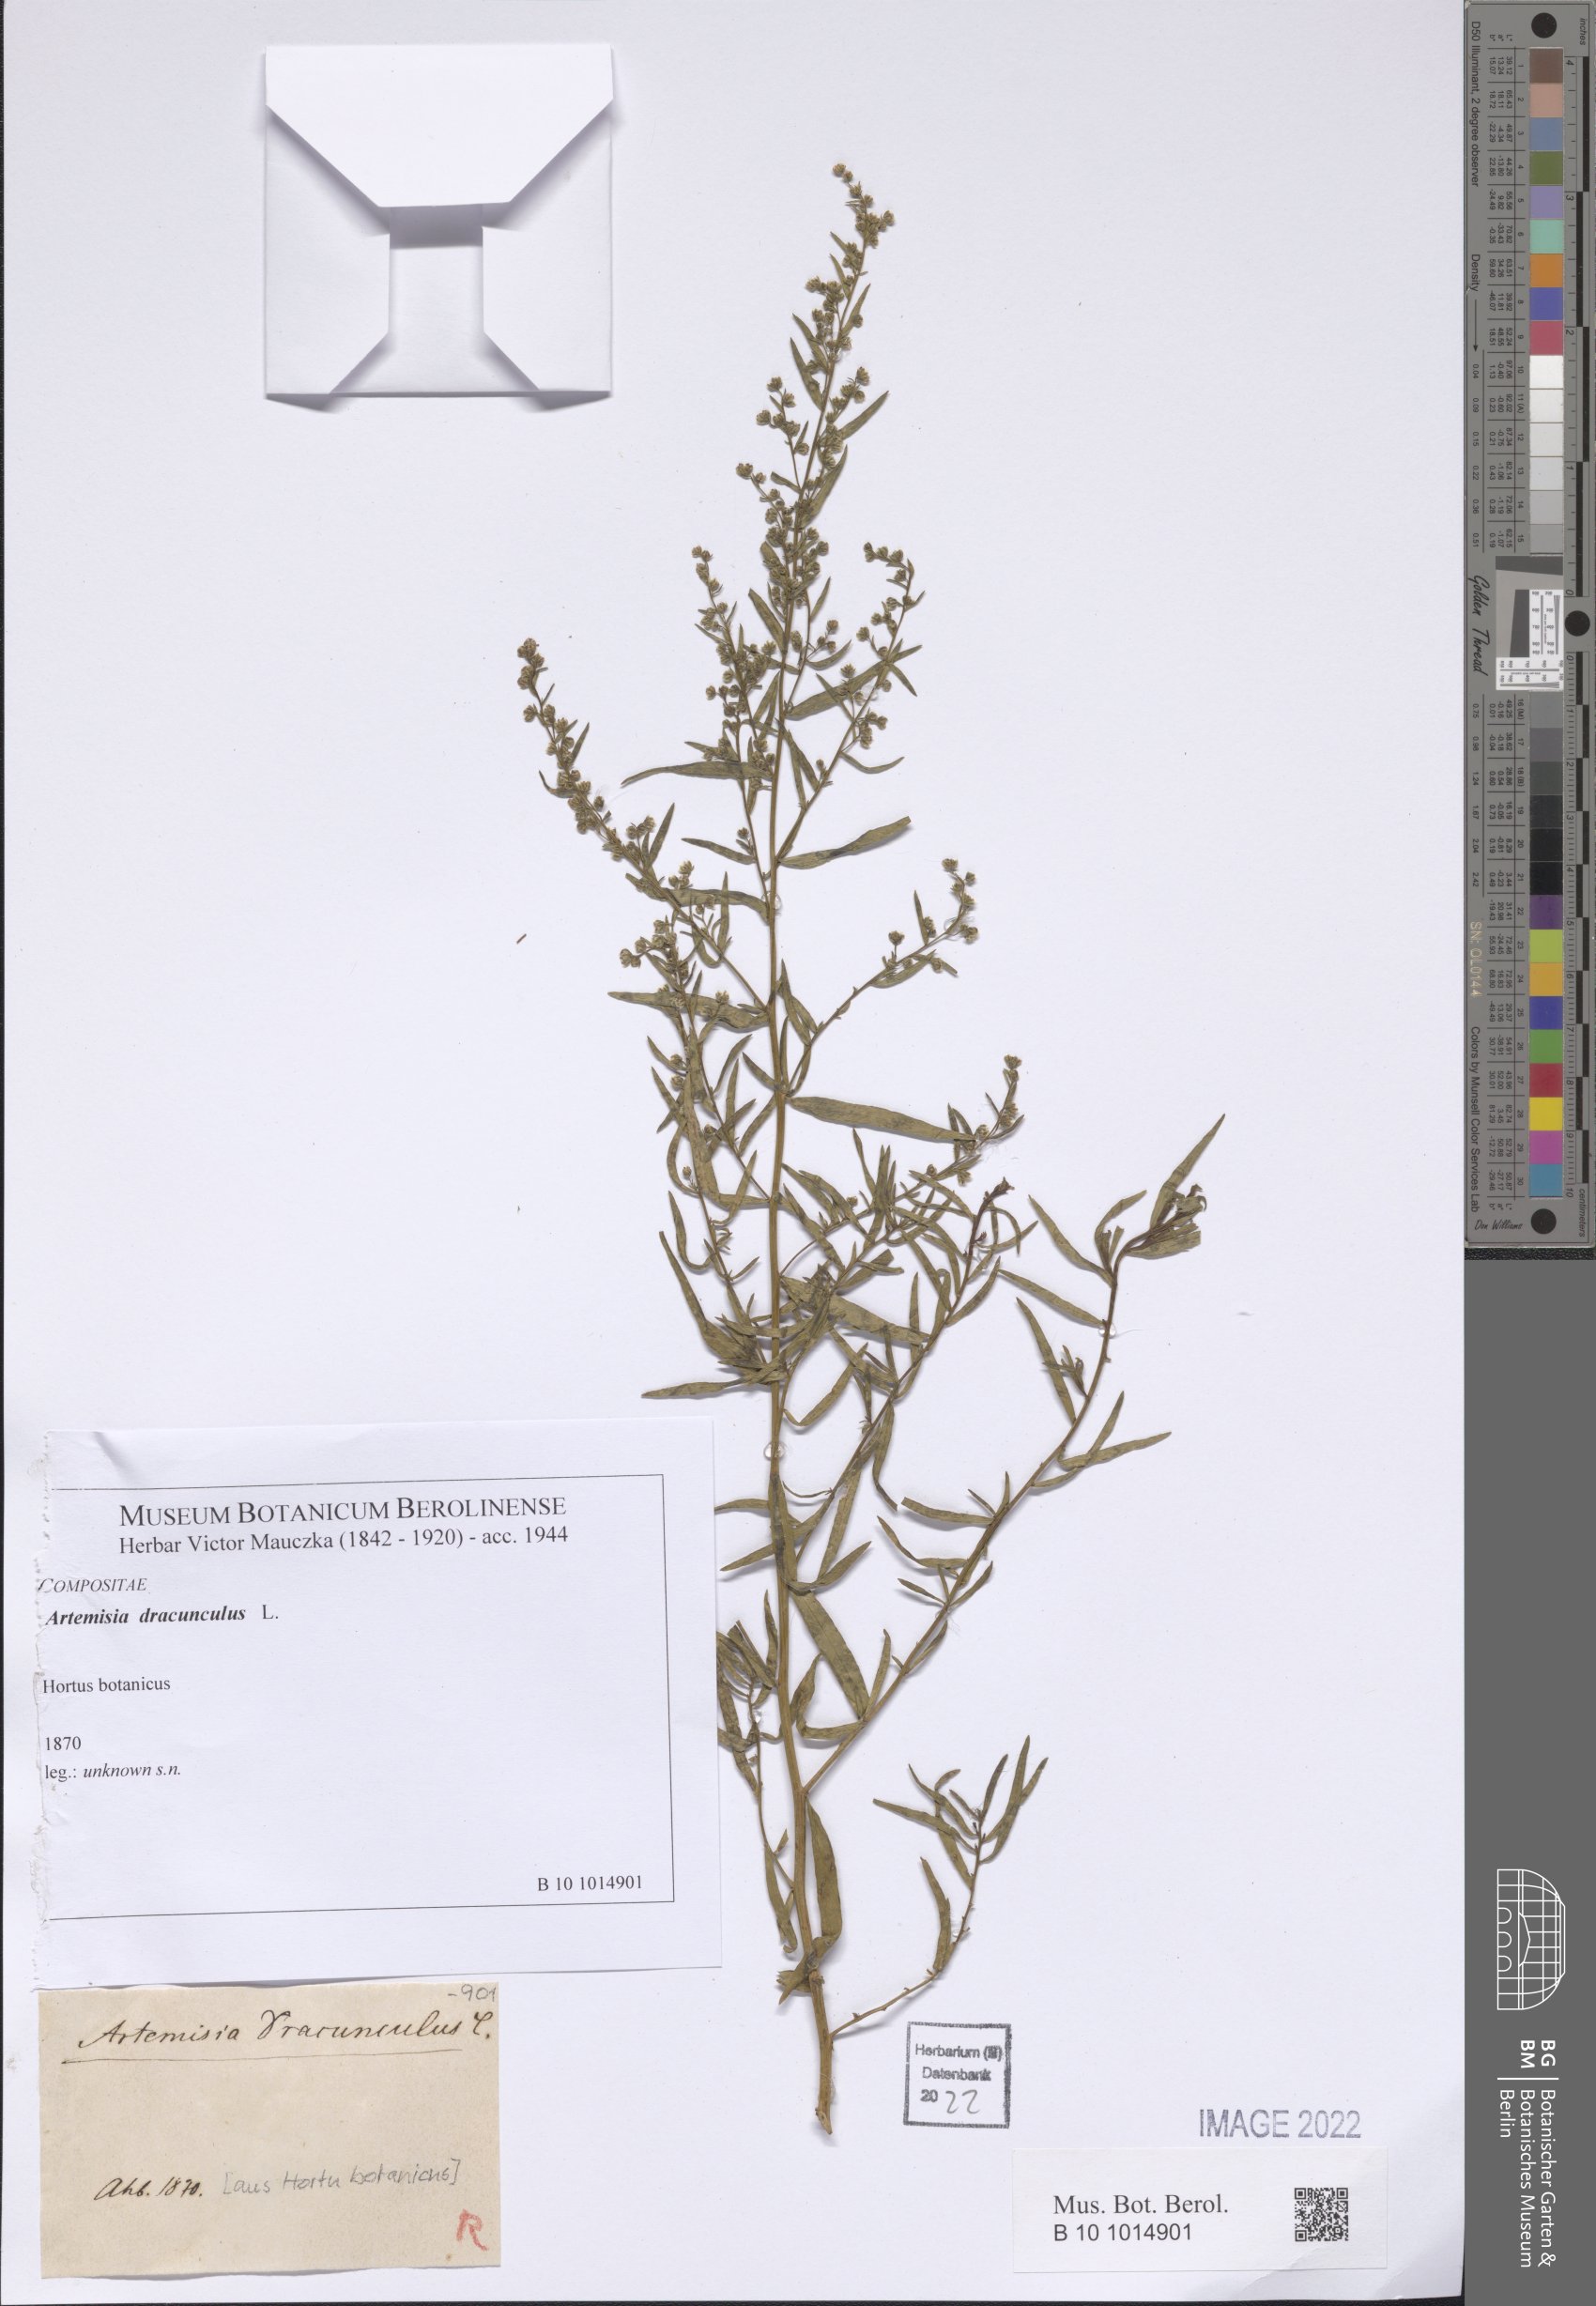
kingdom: Plantae
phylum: Tracheophyta
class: Magnoliopsida
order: Asterales
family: Asteraceae
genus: Artemisia
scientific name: Artemisia dracunculus
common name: Tarragon
